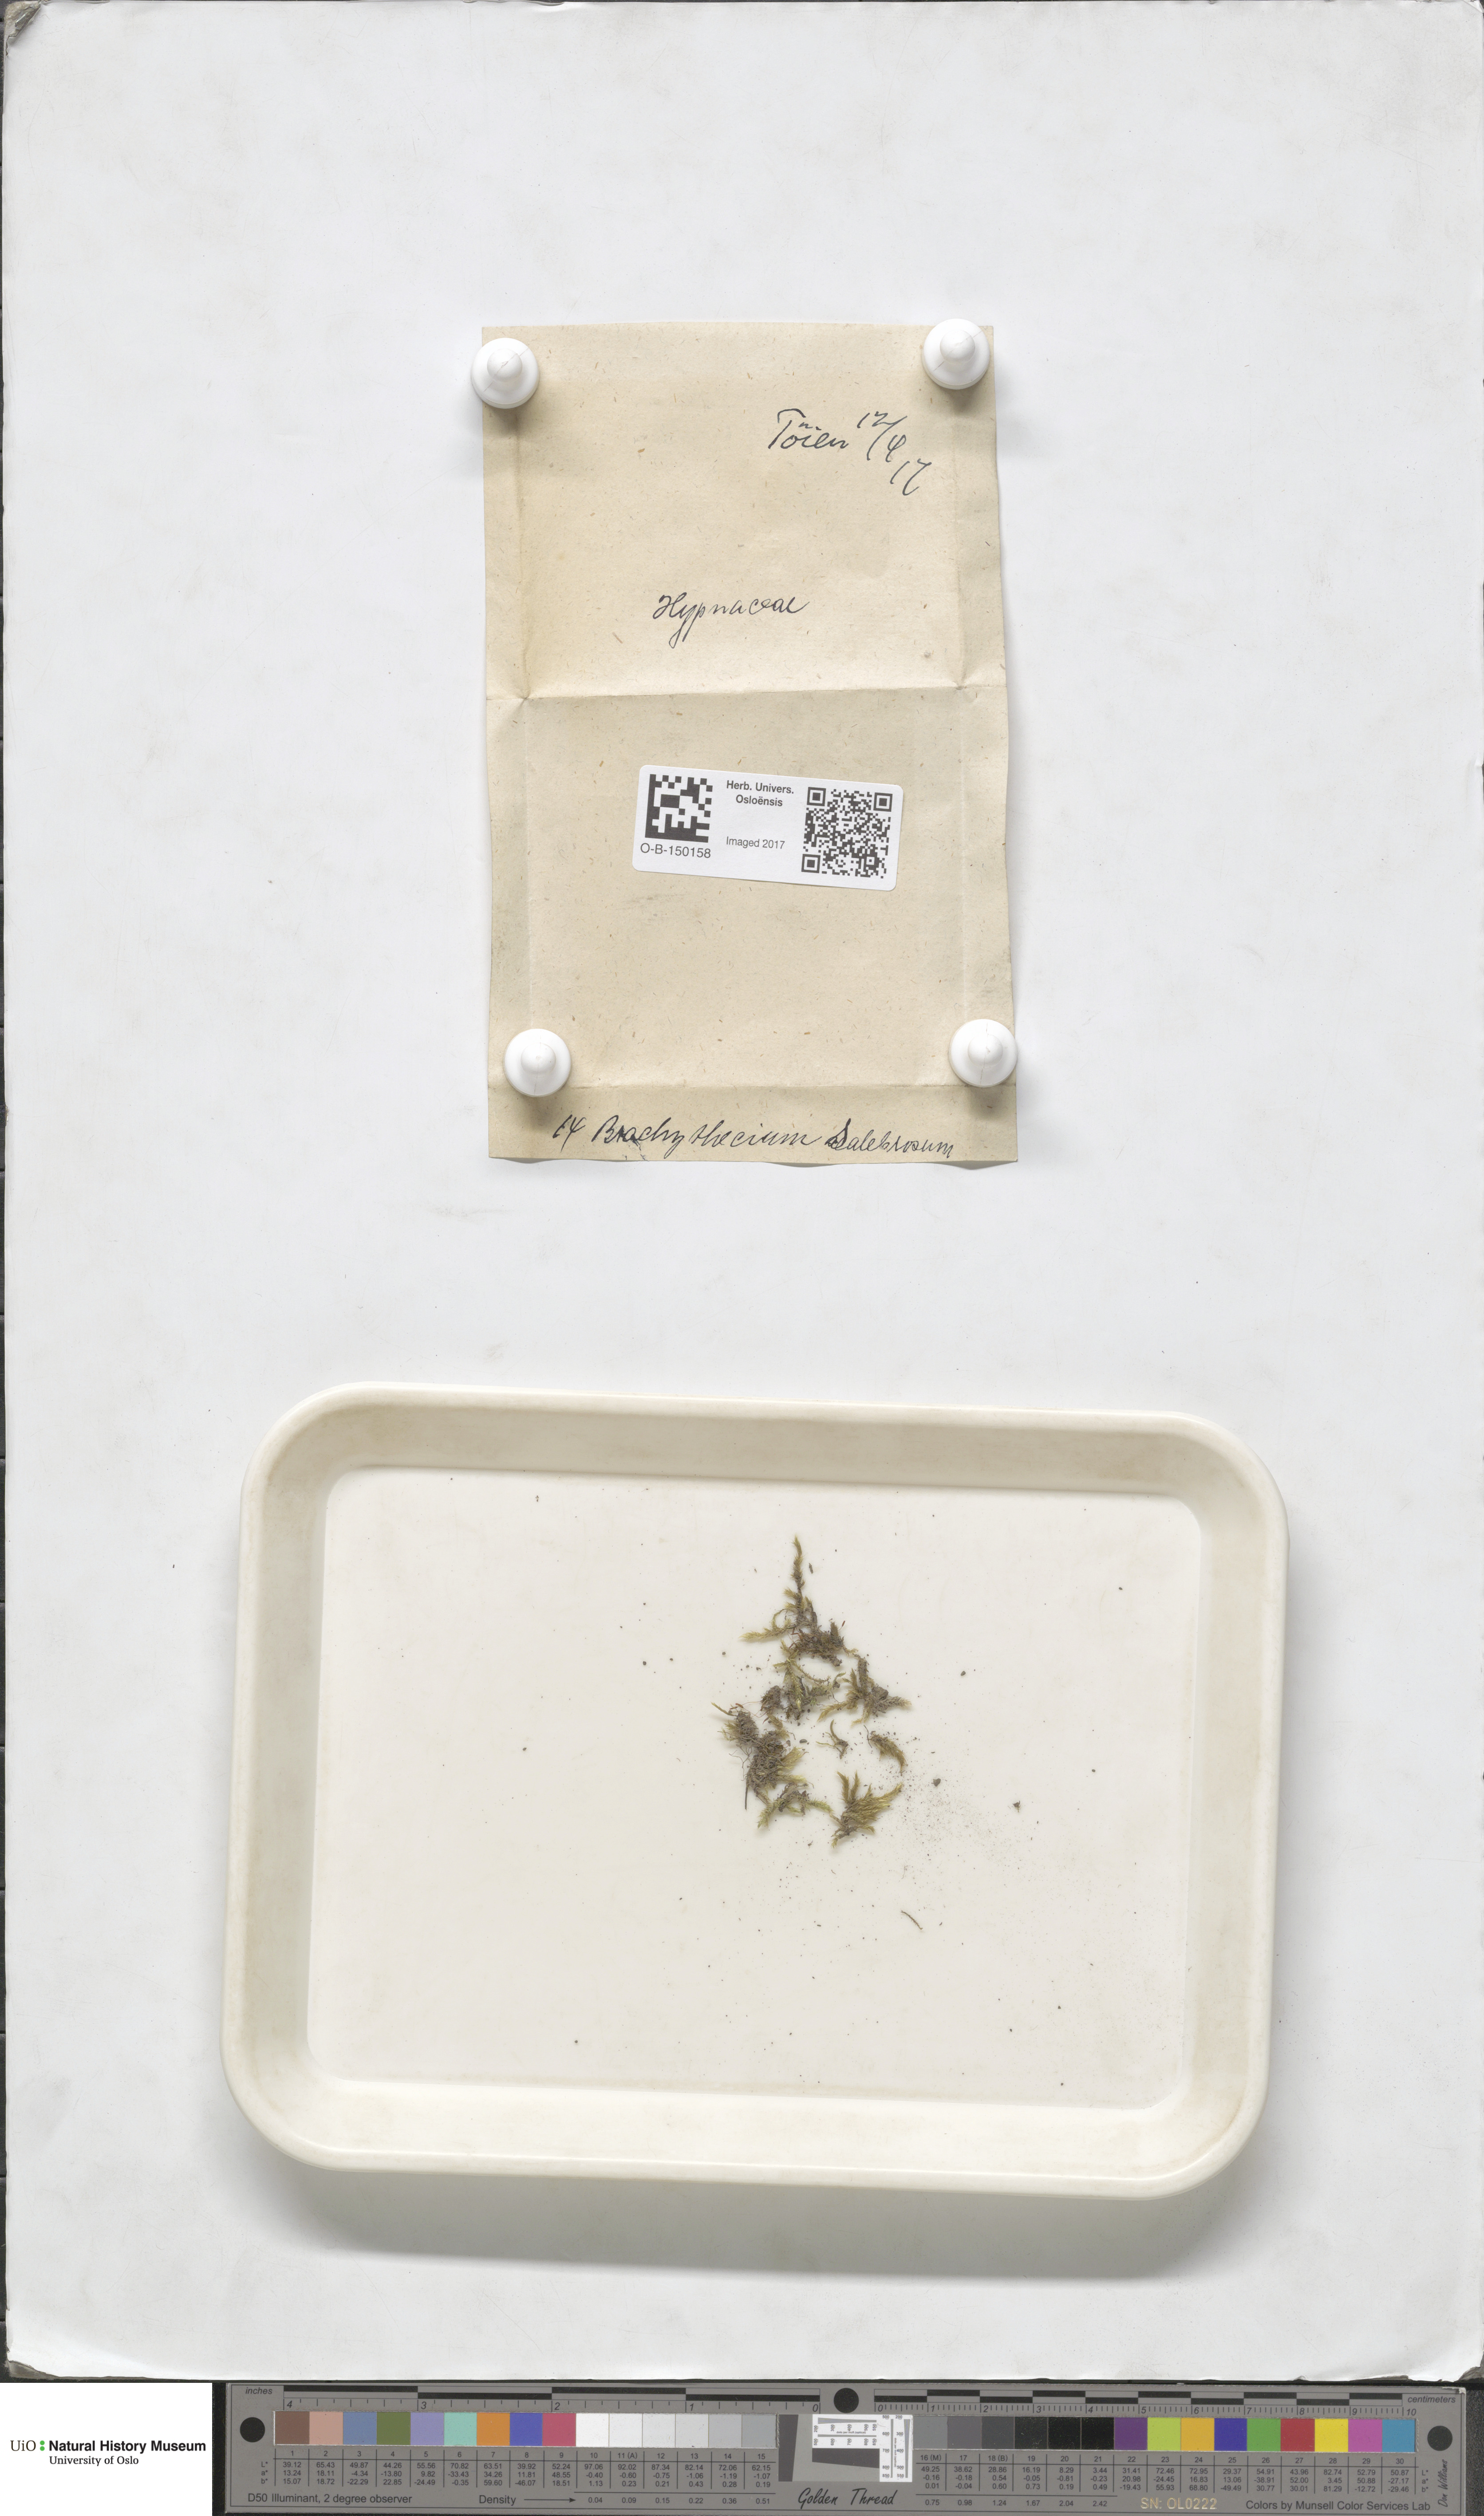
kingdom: Plantae
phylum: Bryophyta
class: Bryopsida
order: Hypnales
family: Brachytheciaceae
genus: Brachythecium
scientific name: Brachythecium salebrosum
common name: Smooth-stalk feather-moss
